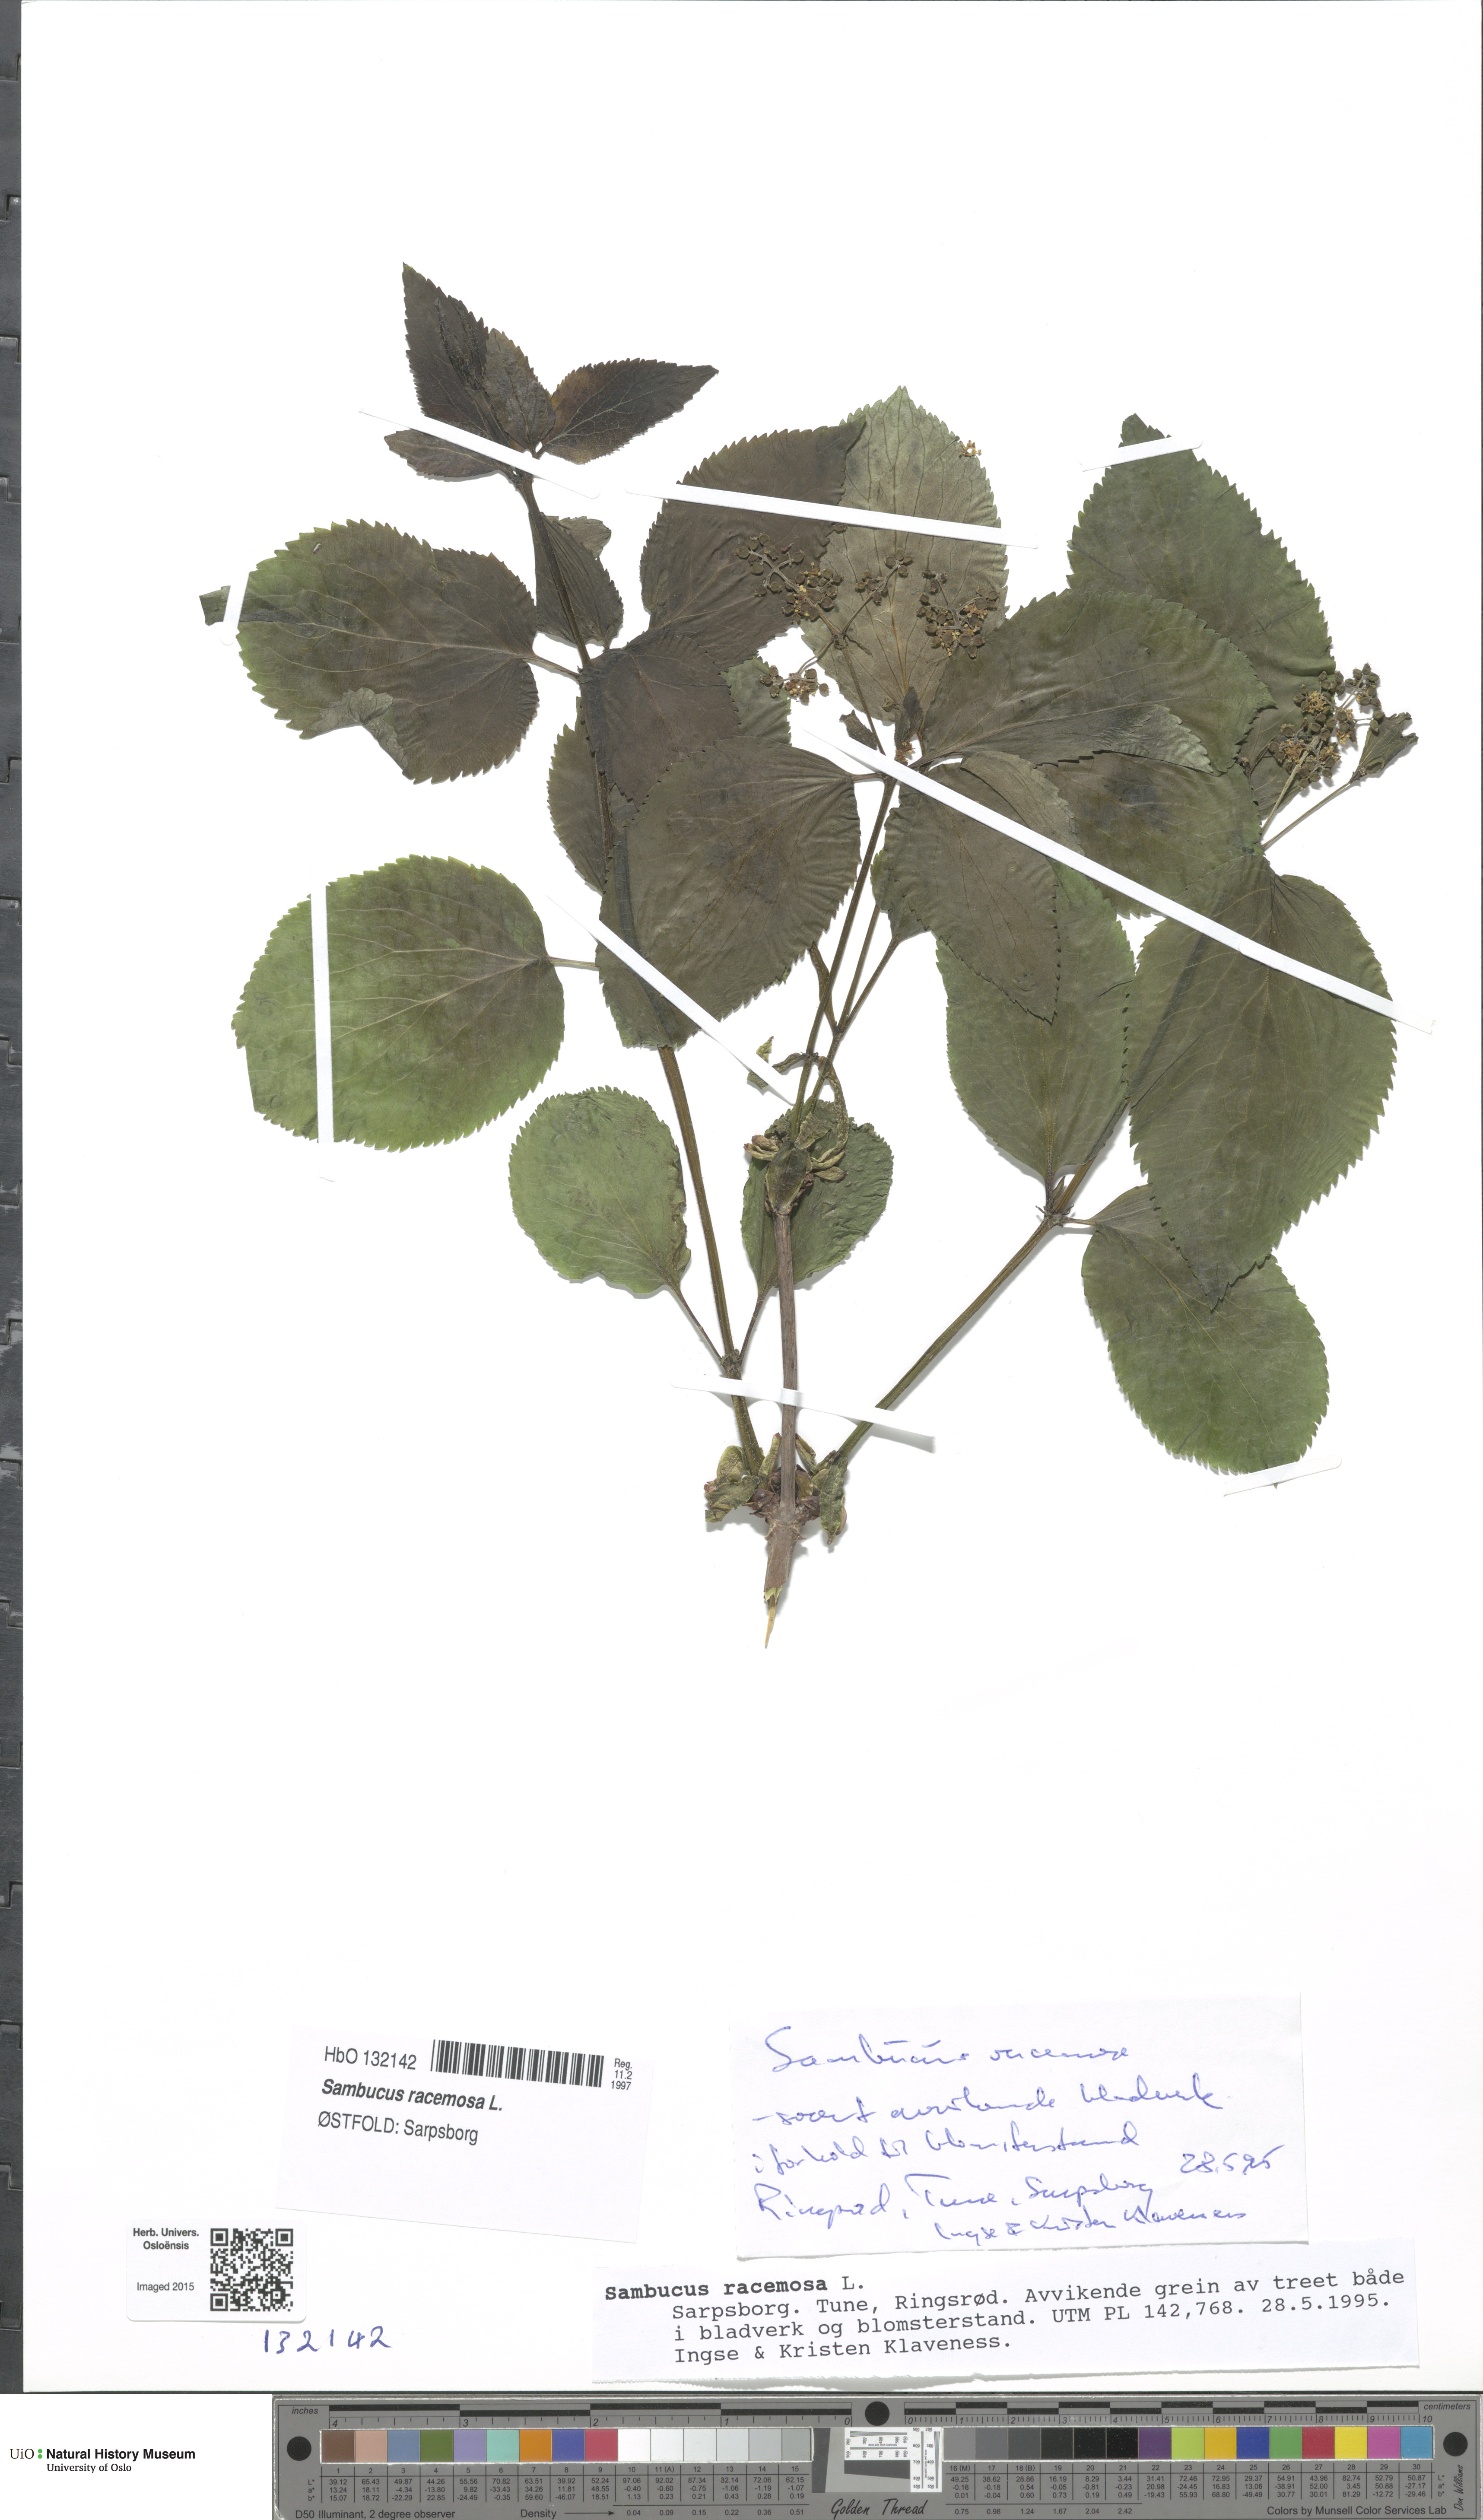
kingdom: Plantae
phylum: Tracheophyta
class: Magnoliopsida
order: Dipsacales
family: Viburnaceae
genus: Sambucus
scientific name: Sambucus racemosa
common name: Red-berried elder
